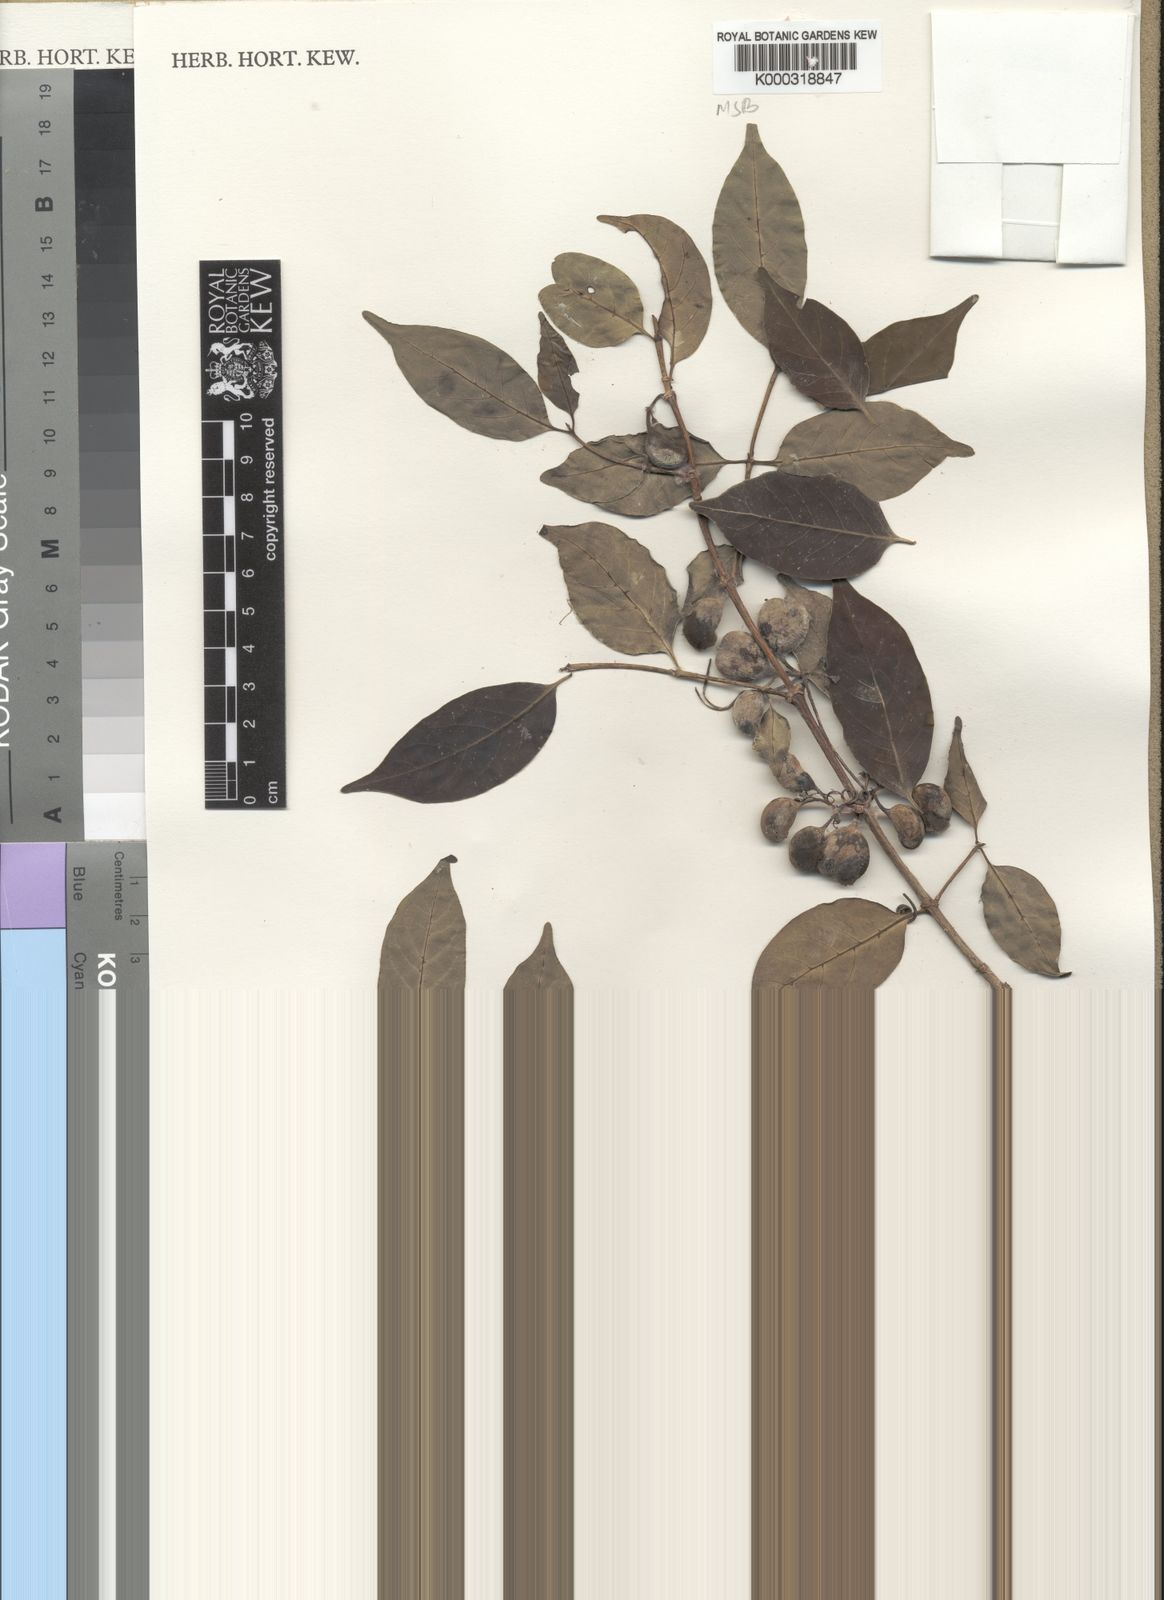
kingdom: Plantae
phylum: Tracheophyta
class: Magnoliopsida
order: Gentianales
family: Rubiaceae
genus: Canthium
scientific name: Canthium oligocarpum
